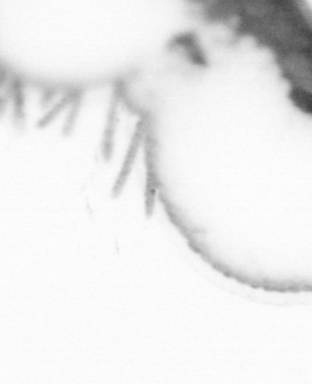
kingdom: Animalia
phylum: Annelida
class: Polychaeta
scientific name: Polychaeta
